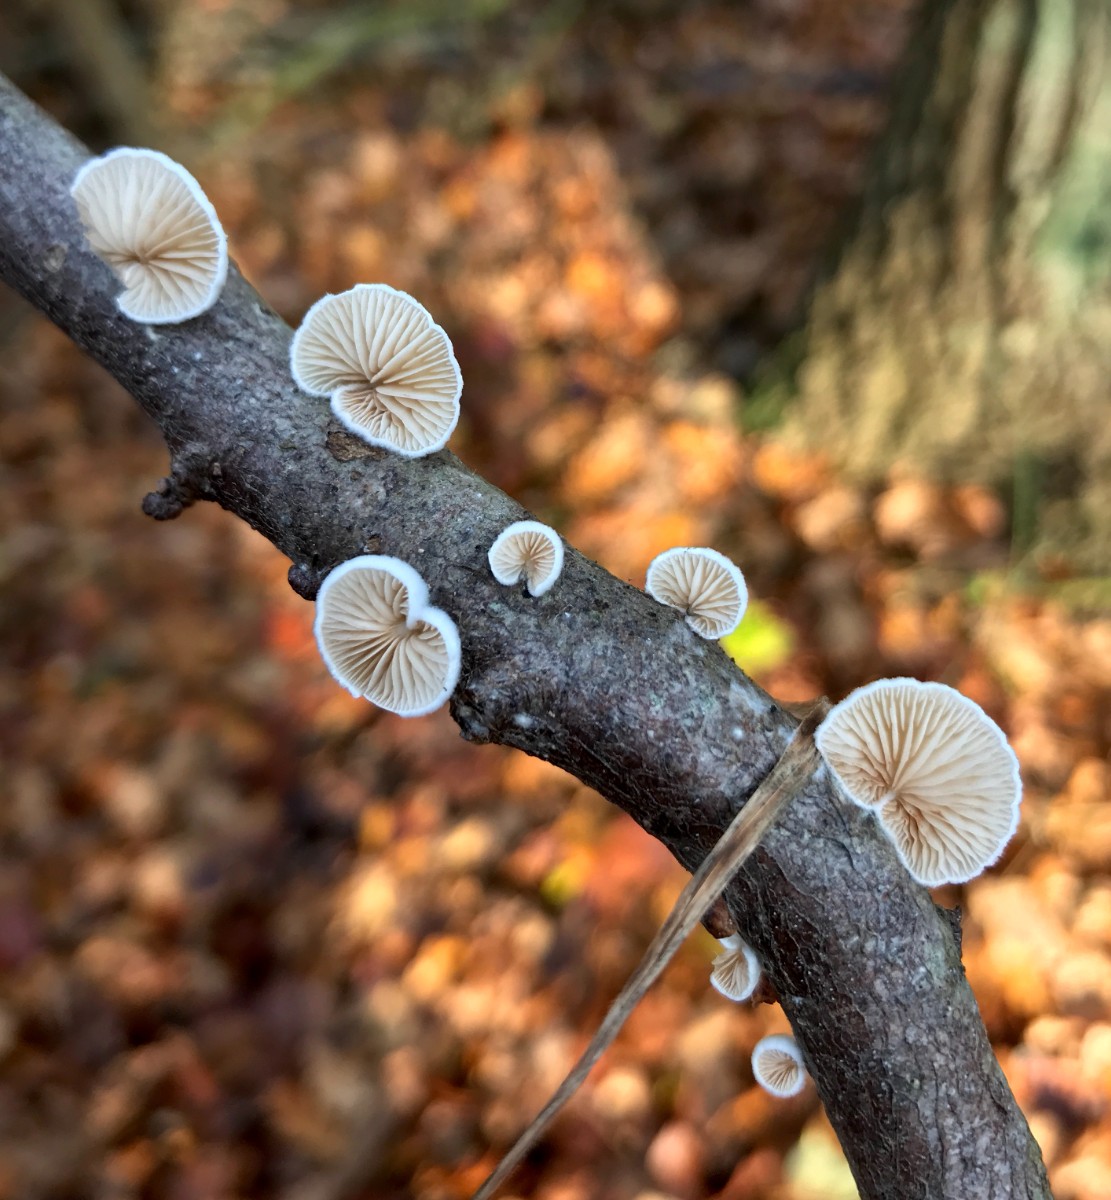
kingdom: Fungi
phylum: Basidiomycota
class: Agaricomycetes
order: Agaricales
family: Crepidotaceae
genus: Crepidotus
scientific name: Crepidotus cesatii
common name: almindelig muslingesvamp
